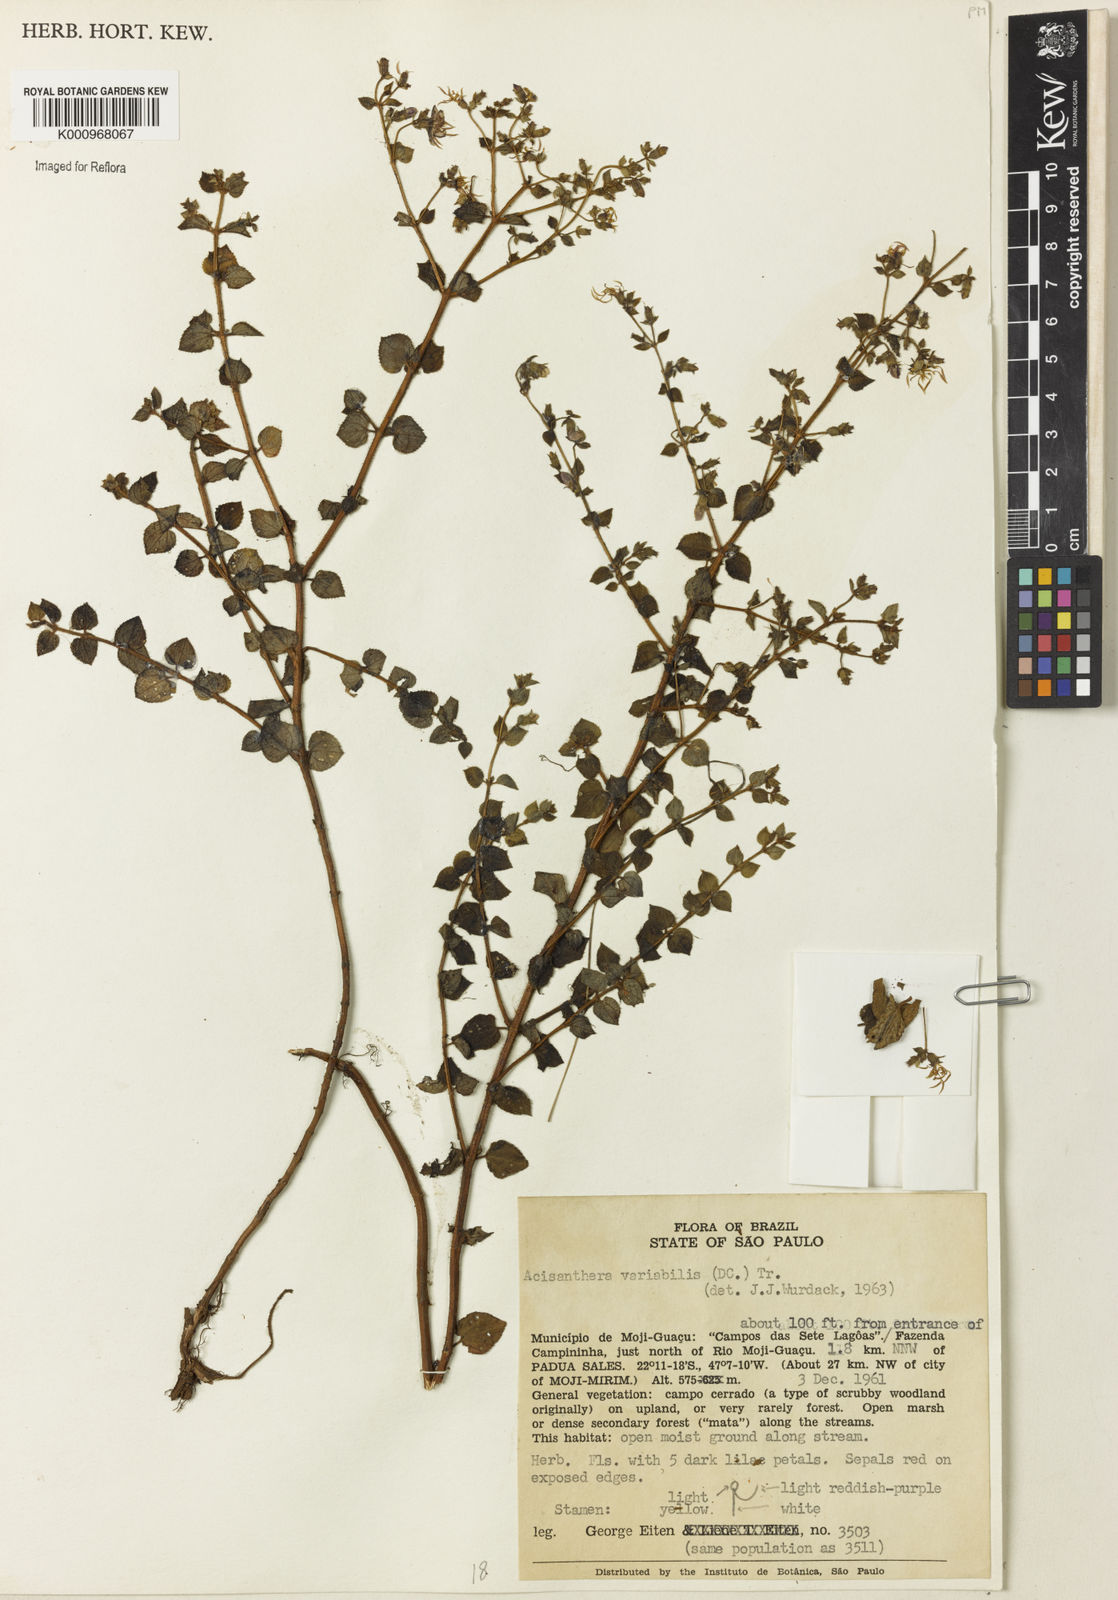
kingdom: Plantae
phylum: Tracheophyta
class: Magnoliopsida
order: Myrtales
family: Melastomataceae
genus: Acisanthera
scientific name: Acisanthera variabilis
